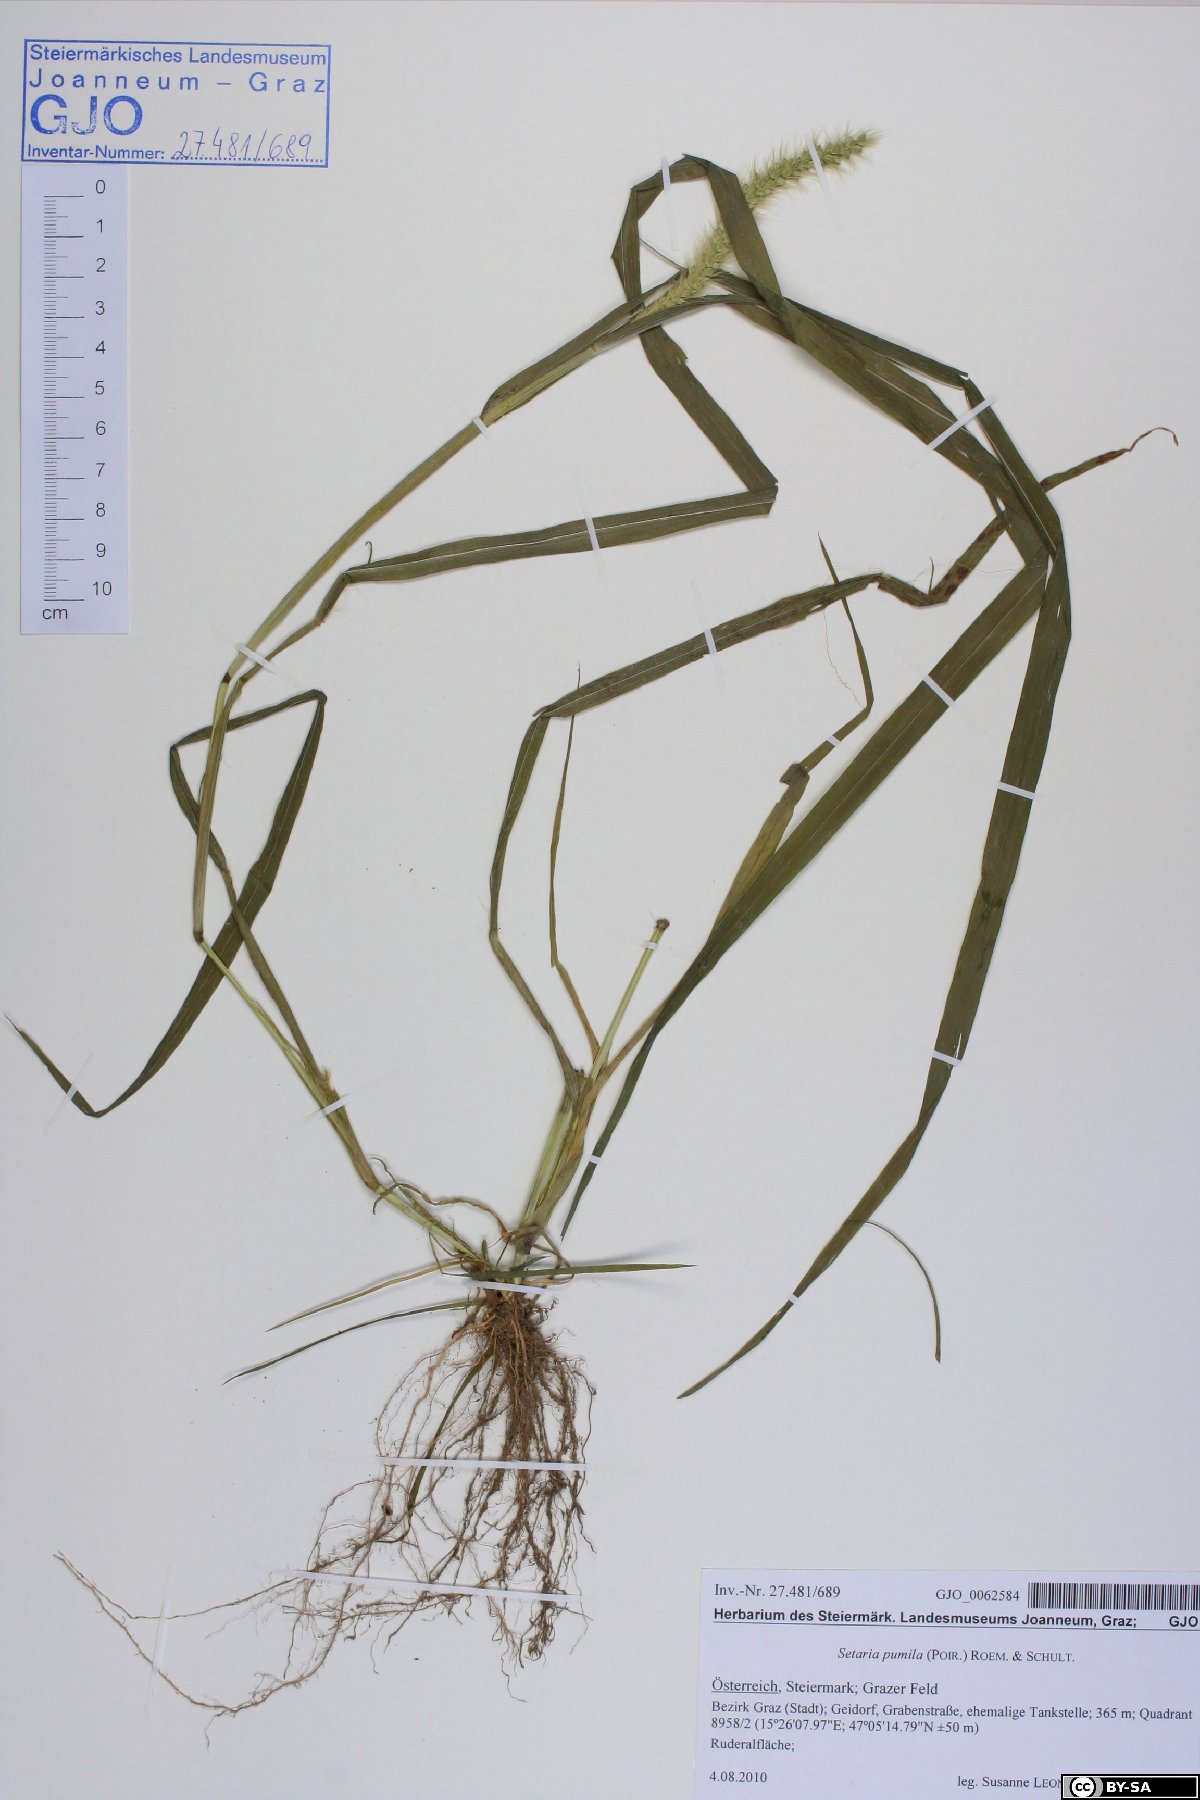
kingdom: Plantae
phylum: Tracheophyta
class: Liliopsida
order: Poales
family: Poaceae
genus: Setaria
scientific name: Setaria pumila
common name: Yellow bristle-grass
